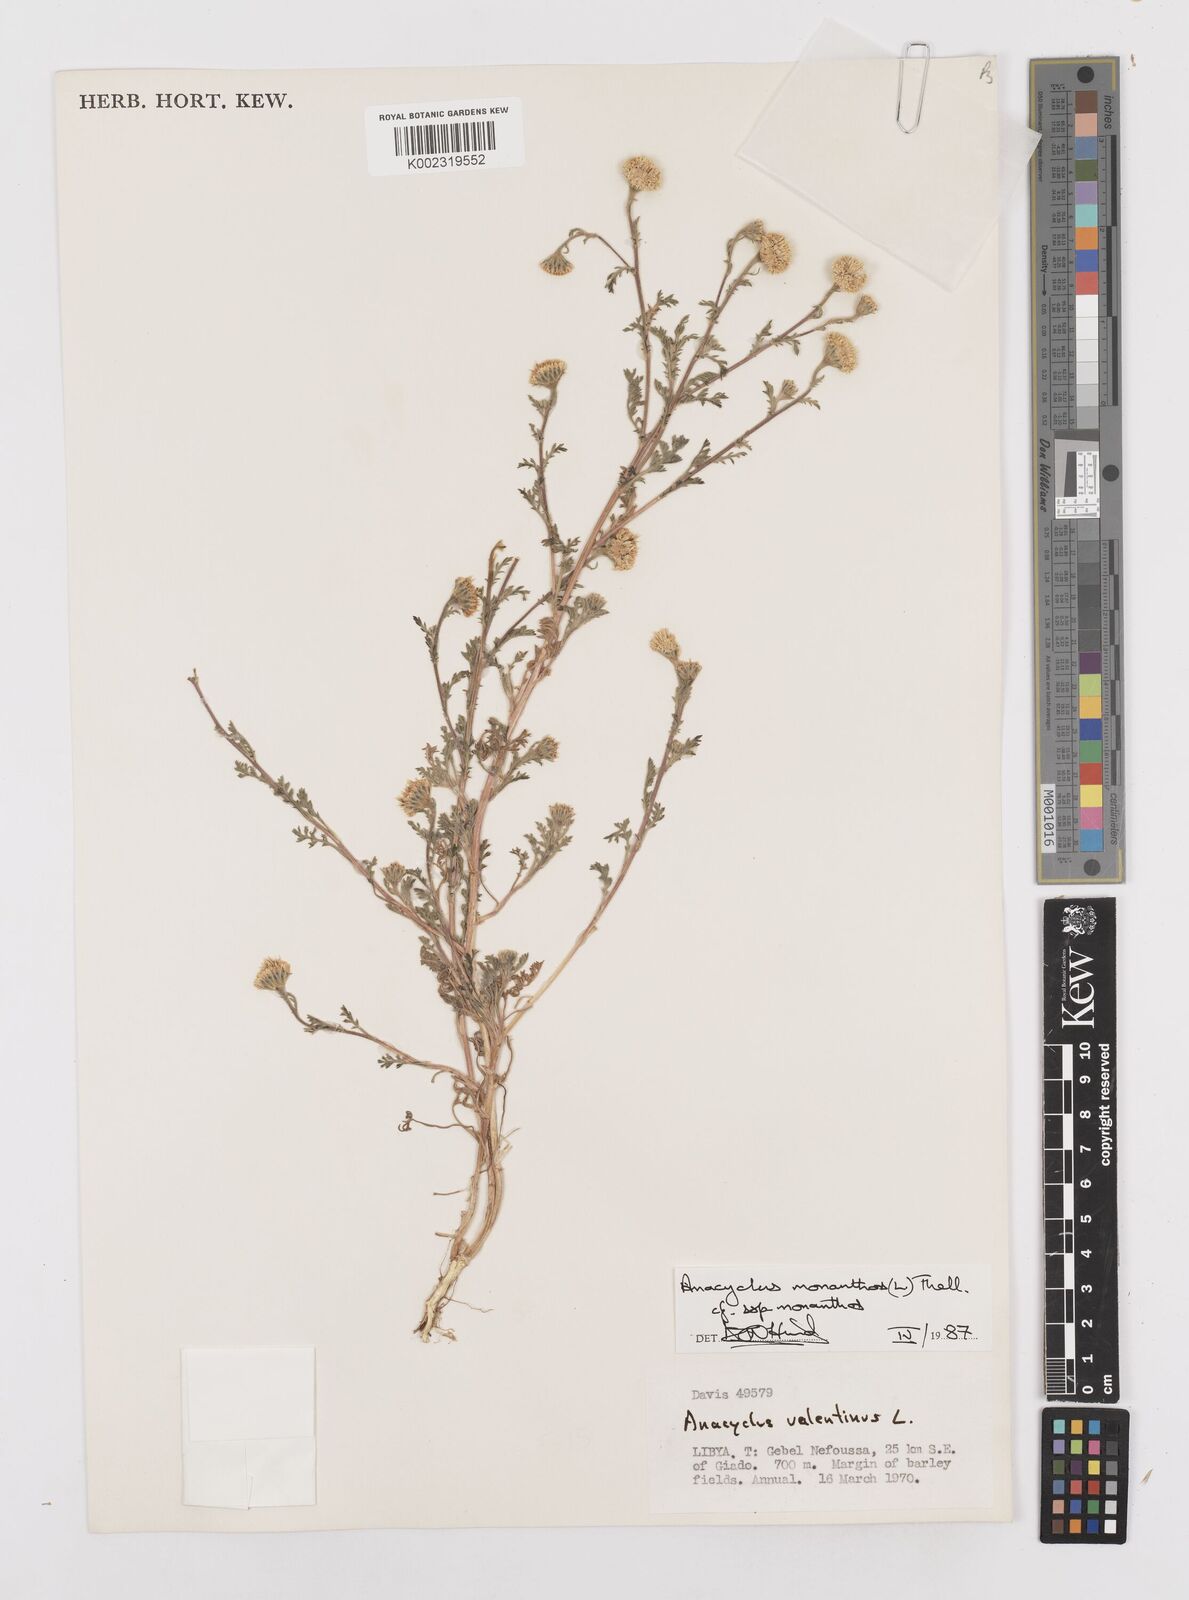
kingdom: Plantae
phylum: Tracheophyta
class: Magnoliopsida
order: Asterales
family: Asteraceae
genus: Anacyclus
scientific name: Anacyclus monanthos
